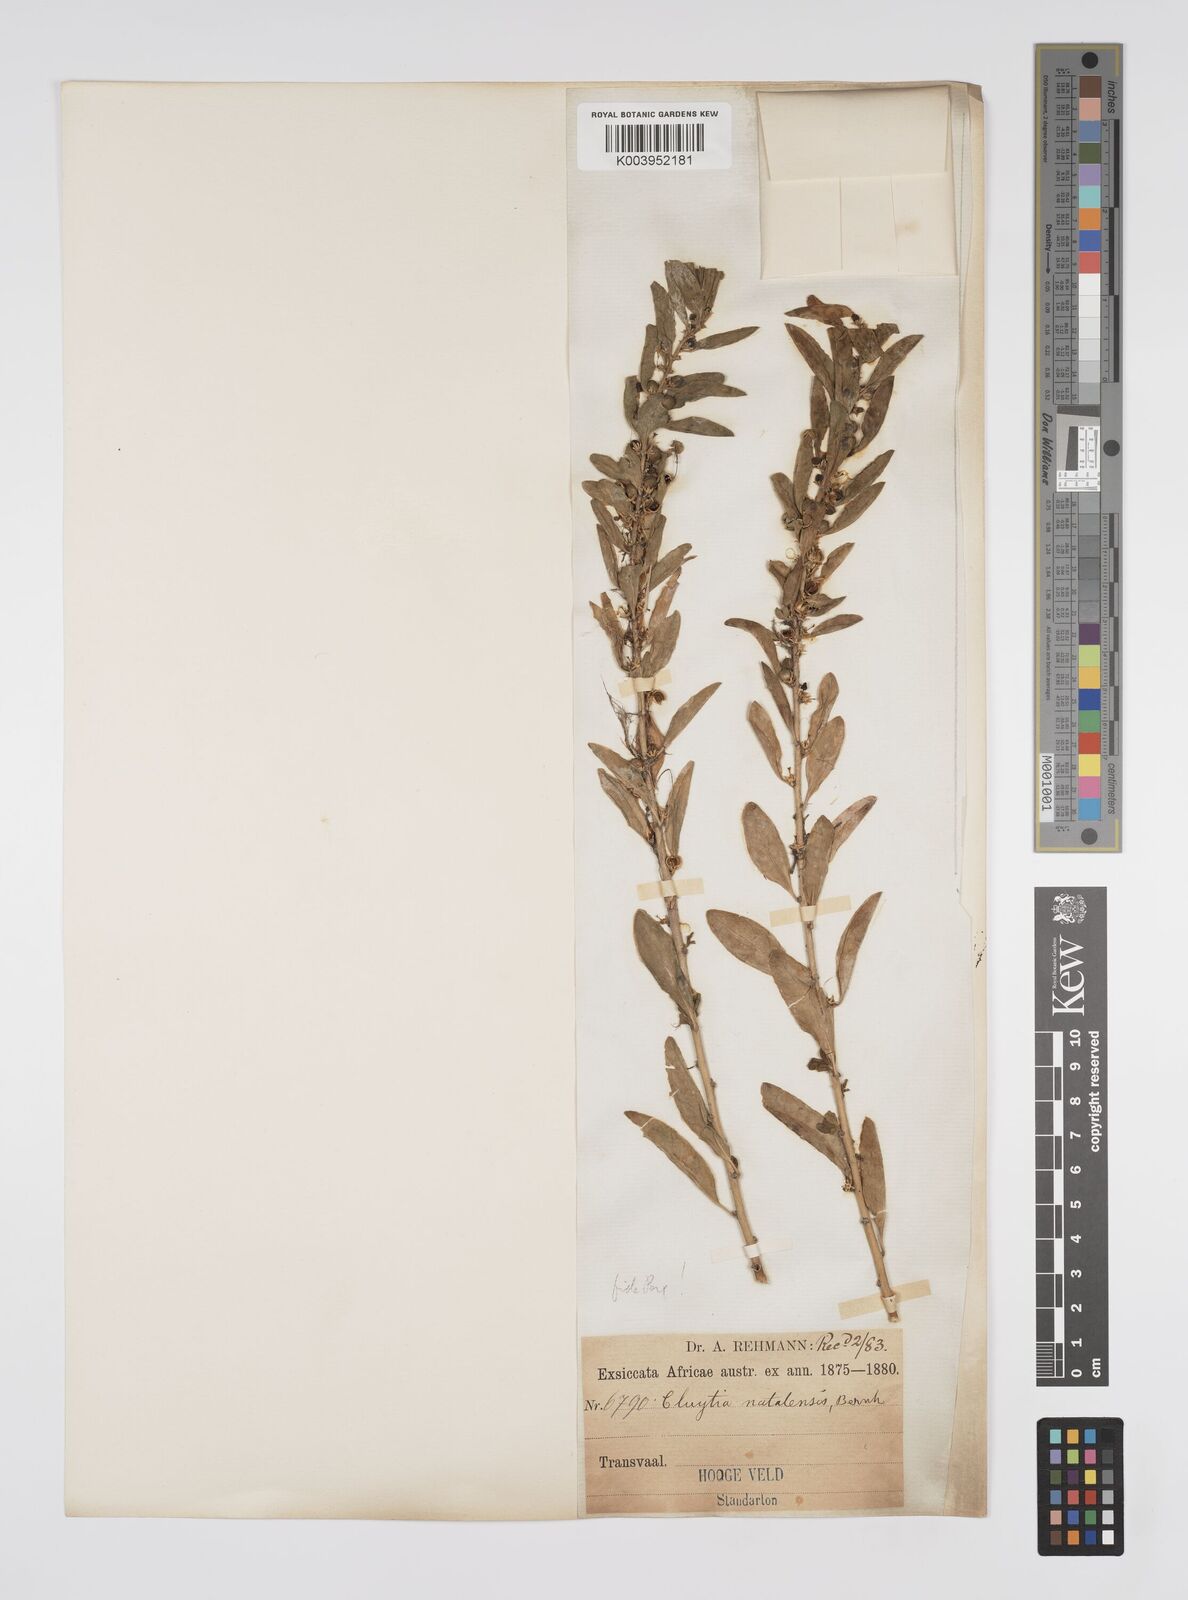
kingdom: Plantae
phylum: Tracheophyta
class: Magnoliopsida
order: Malpighiales
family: Peraceae
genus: Clutia
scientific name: Clutia natalensis
